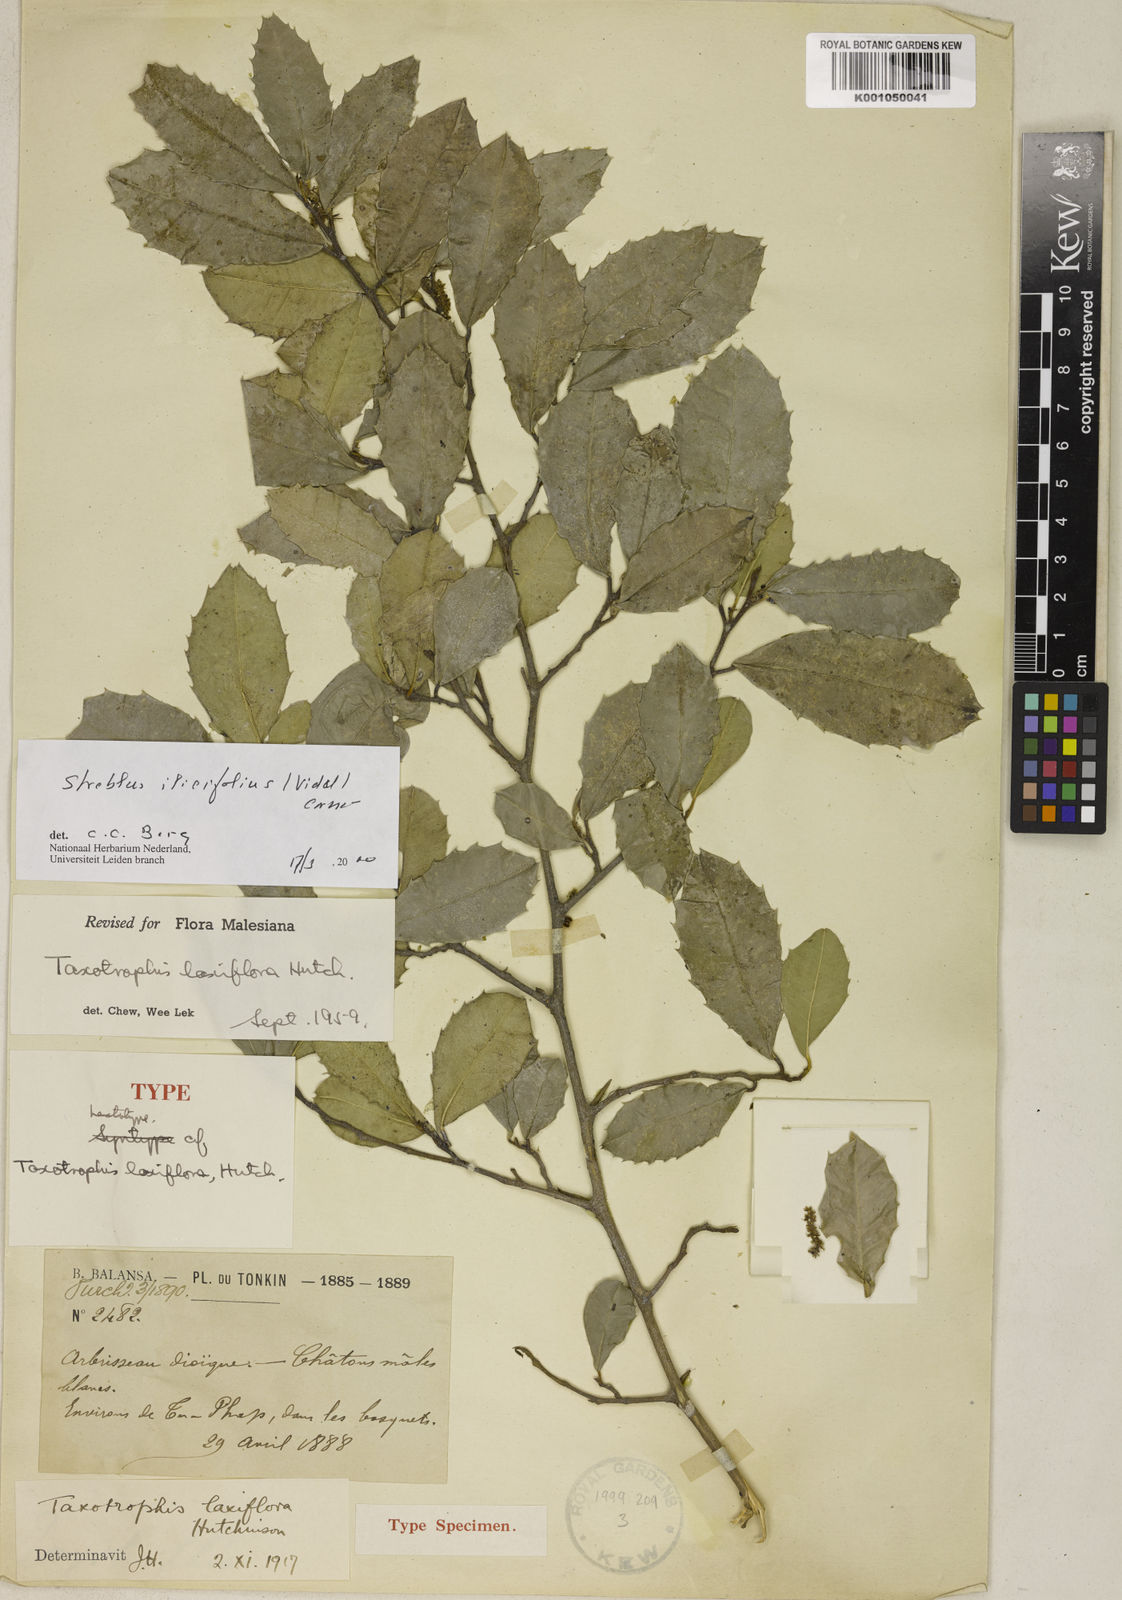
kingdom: Plantae
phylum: Tracheophyta
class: Magnoliopsida
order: Rosales
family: Moraceae
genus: Taxotrophis
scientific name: Taxotrophis ilicifolia
